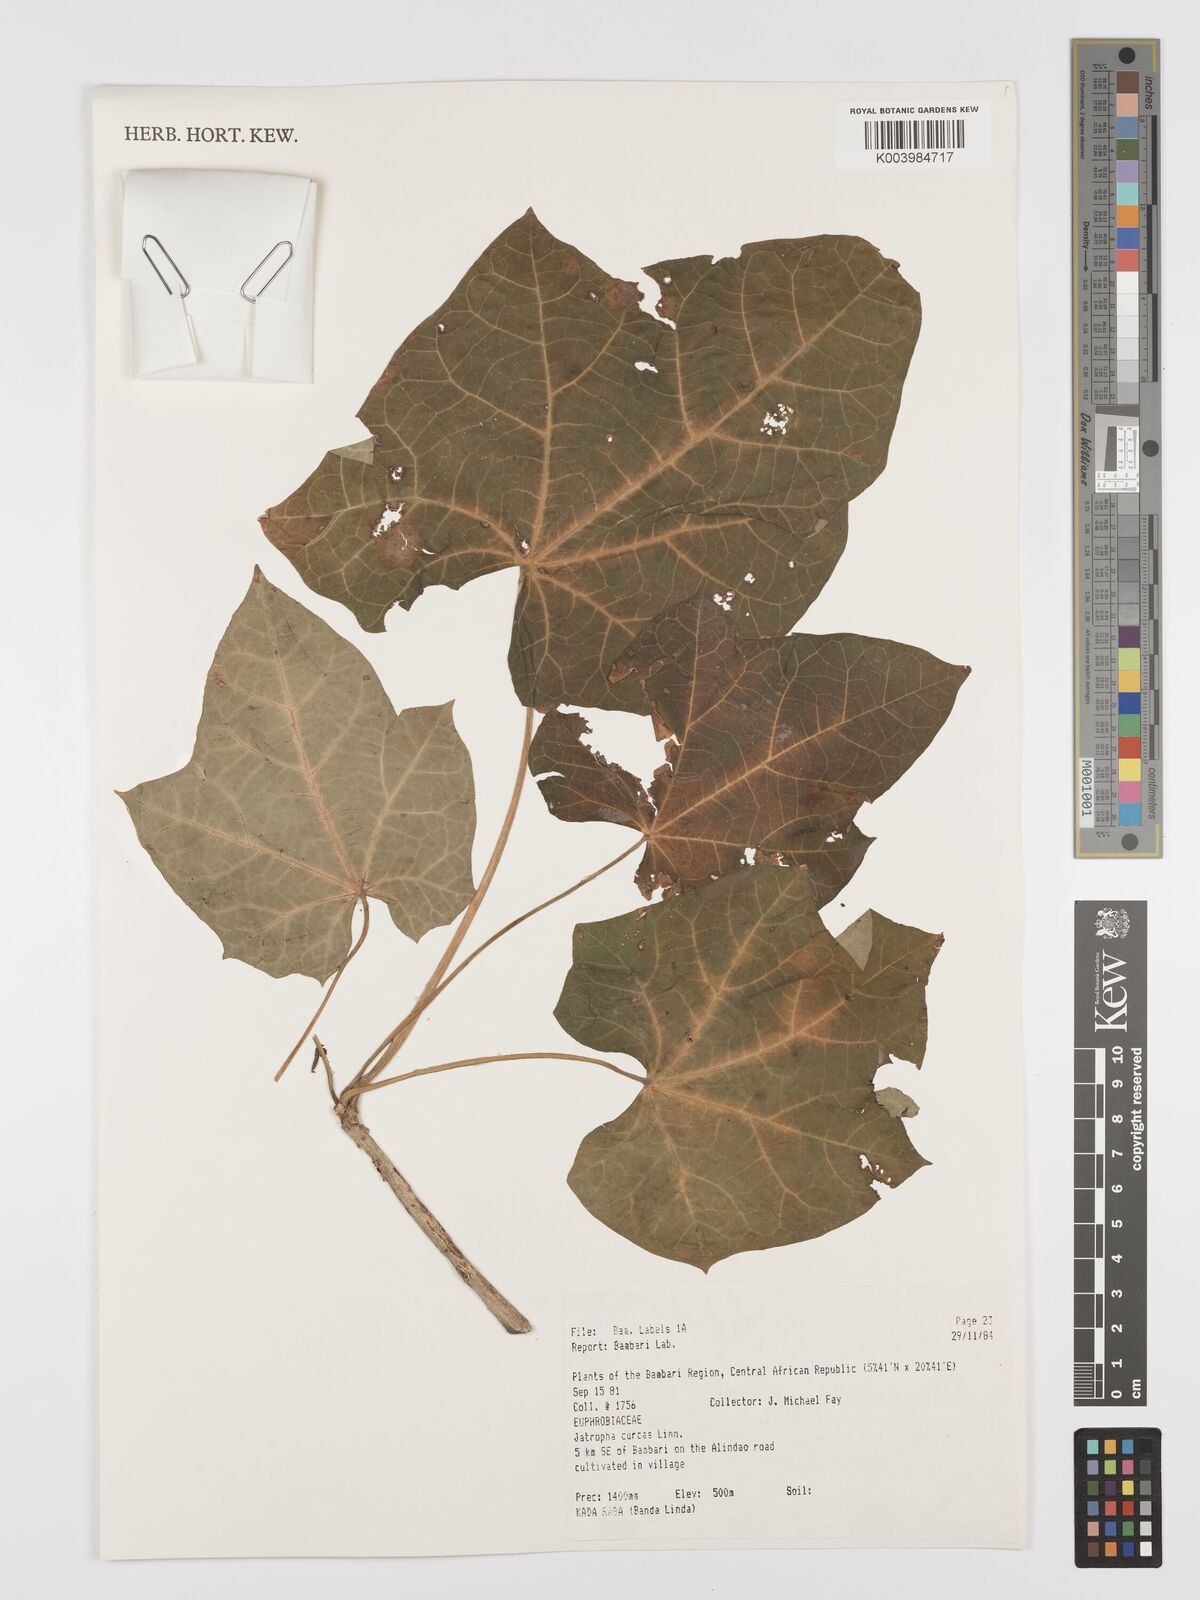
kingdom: Plantae
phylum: Tracheophyta
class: Magnoliopsida
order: Malpighiales
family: Euphorbiaceae
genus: Jatropha
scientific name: Jatropha curcas
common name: Barbados nut
